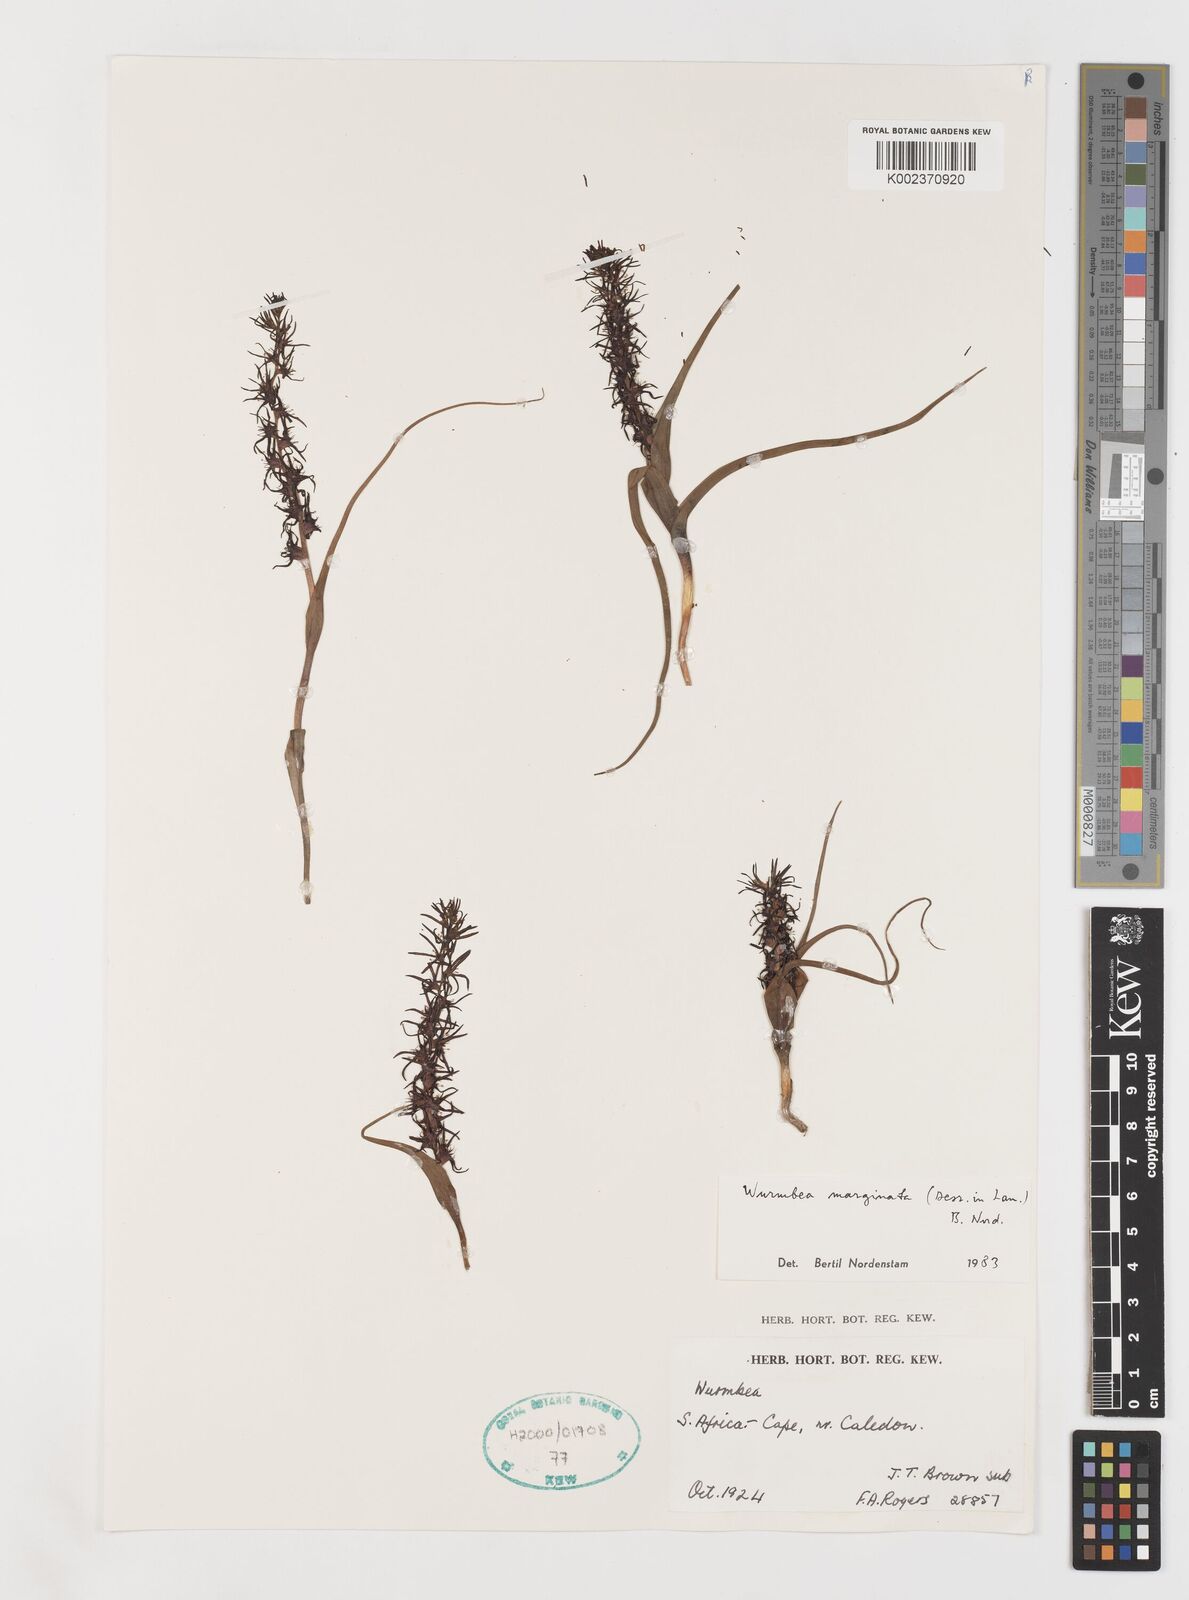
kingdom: Plantae
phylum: Tracheophyta
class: Liliopsida
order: Liliales
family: Colchicaceae
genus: Wurmbea
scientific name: Wurmbea marginata
